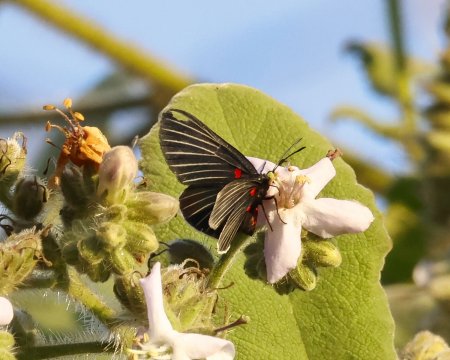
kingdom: Animalia
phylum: Arthropoda
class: Insecta
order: Lepidoptera
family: Lycaenidae
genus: Melanis
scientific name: Melanis
